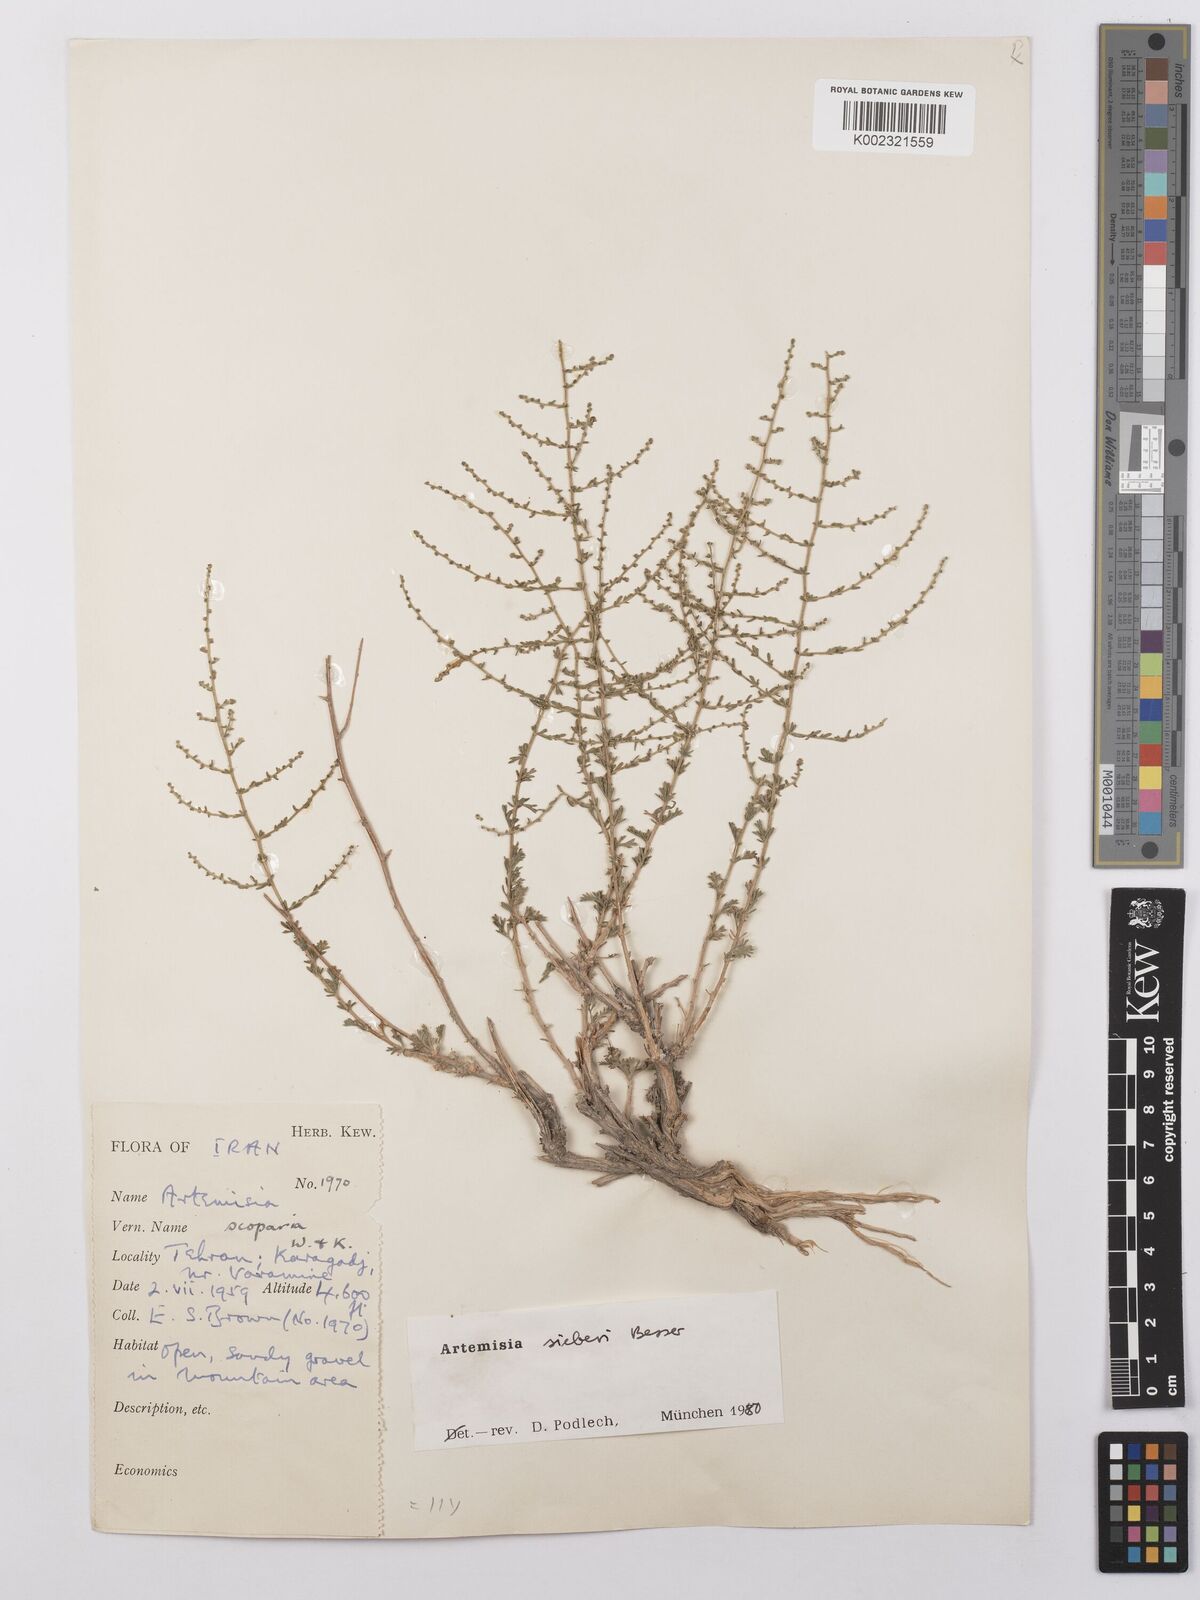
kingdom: Plantae
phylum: Tracheophyta
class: Magnoliopsida
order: Asterales
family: Asteraceae
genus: Artemisia
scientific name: Artemisia sieberi
